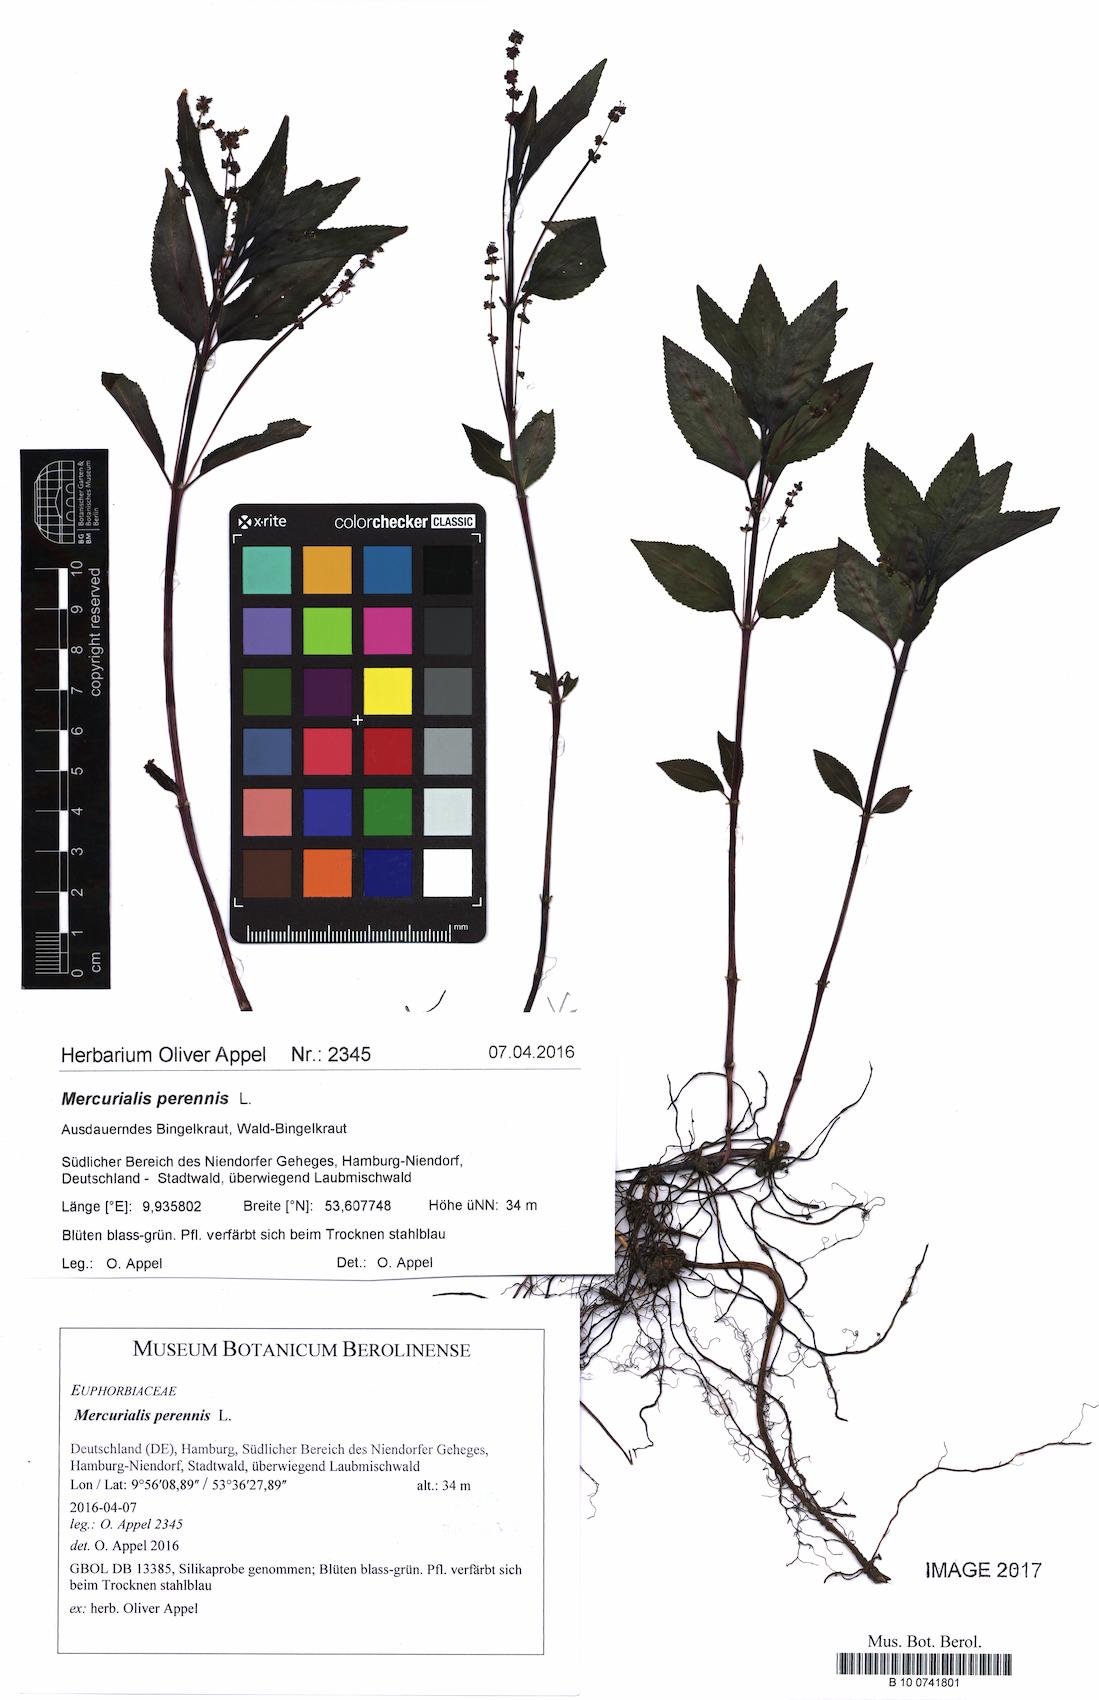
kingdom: Plantae
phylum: Tracheophyta
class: Magnoliopsida
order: Malpighiales
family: Euphorbiaceae
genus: Mercurialis
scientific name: Mercurialis perennis
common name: Dog mercury
